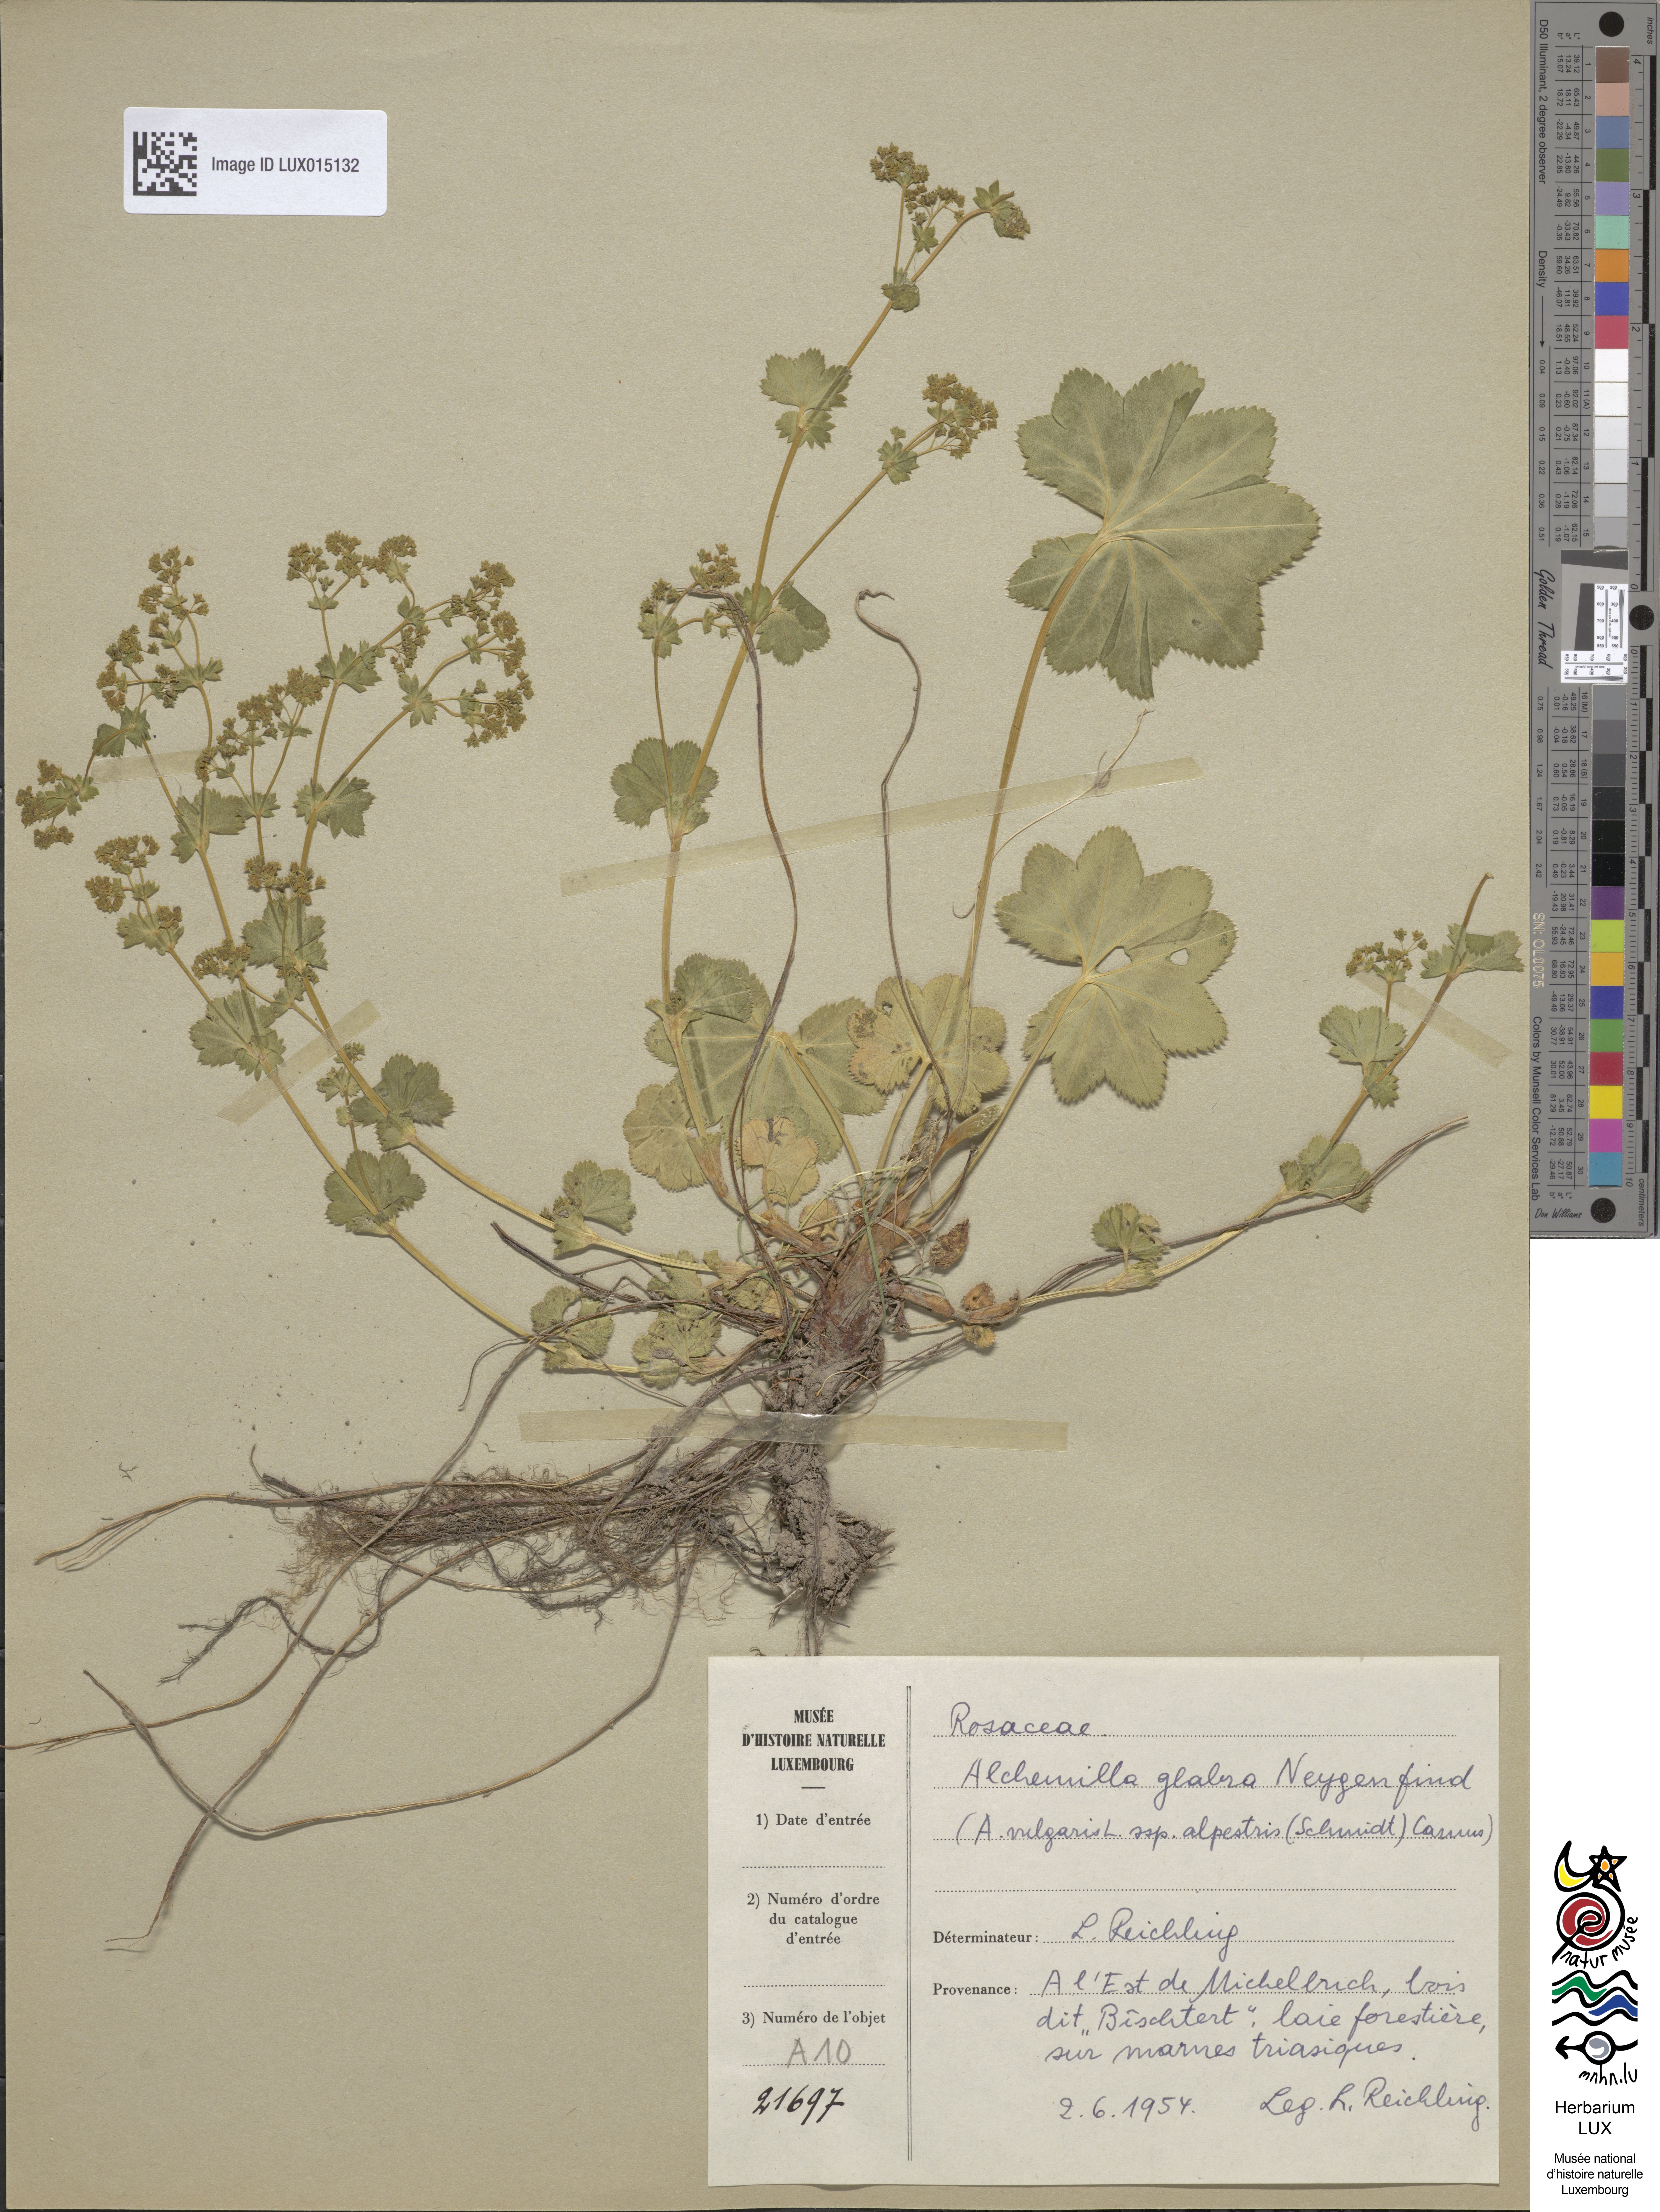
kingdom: Plantae
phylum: Tracheophyta
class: Magnoliopsida
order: Rosales
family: Rosaceae
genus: Alchemilla
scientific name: Alchemilla glabra
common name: Smooth lady's-mantle
